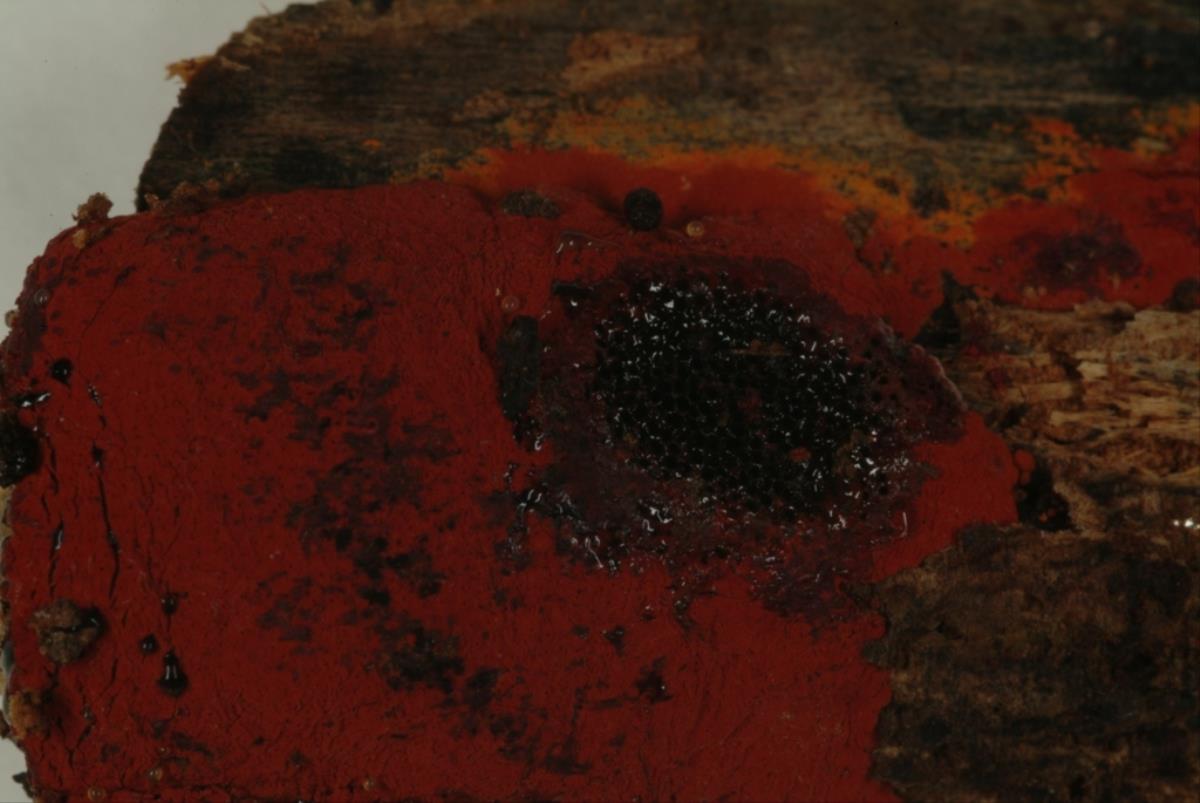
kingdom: Fungi
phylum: Ascomycota
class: Sordariomycetes
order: Xylariales
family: Hypoxylaceae
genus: Hypoxylon
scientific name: Hypoxylon haematostroma
